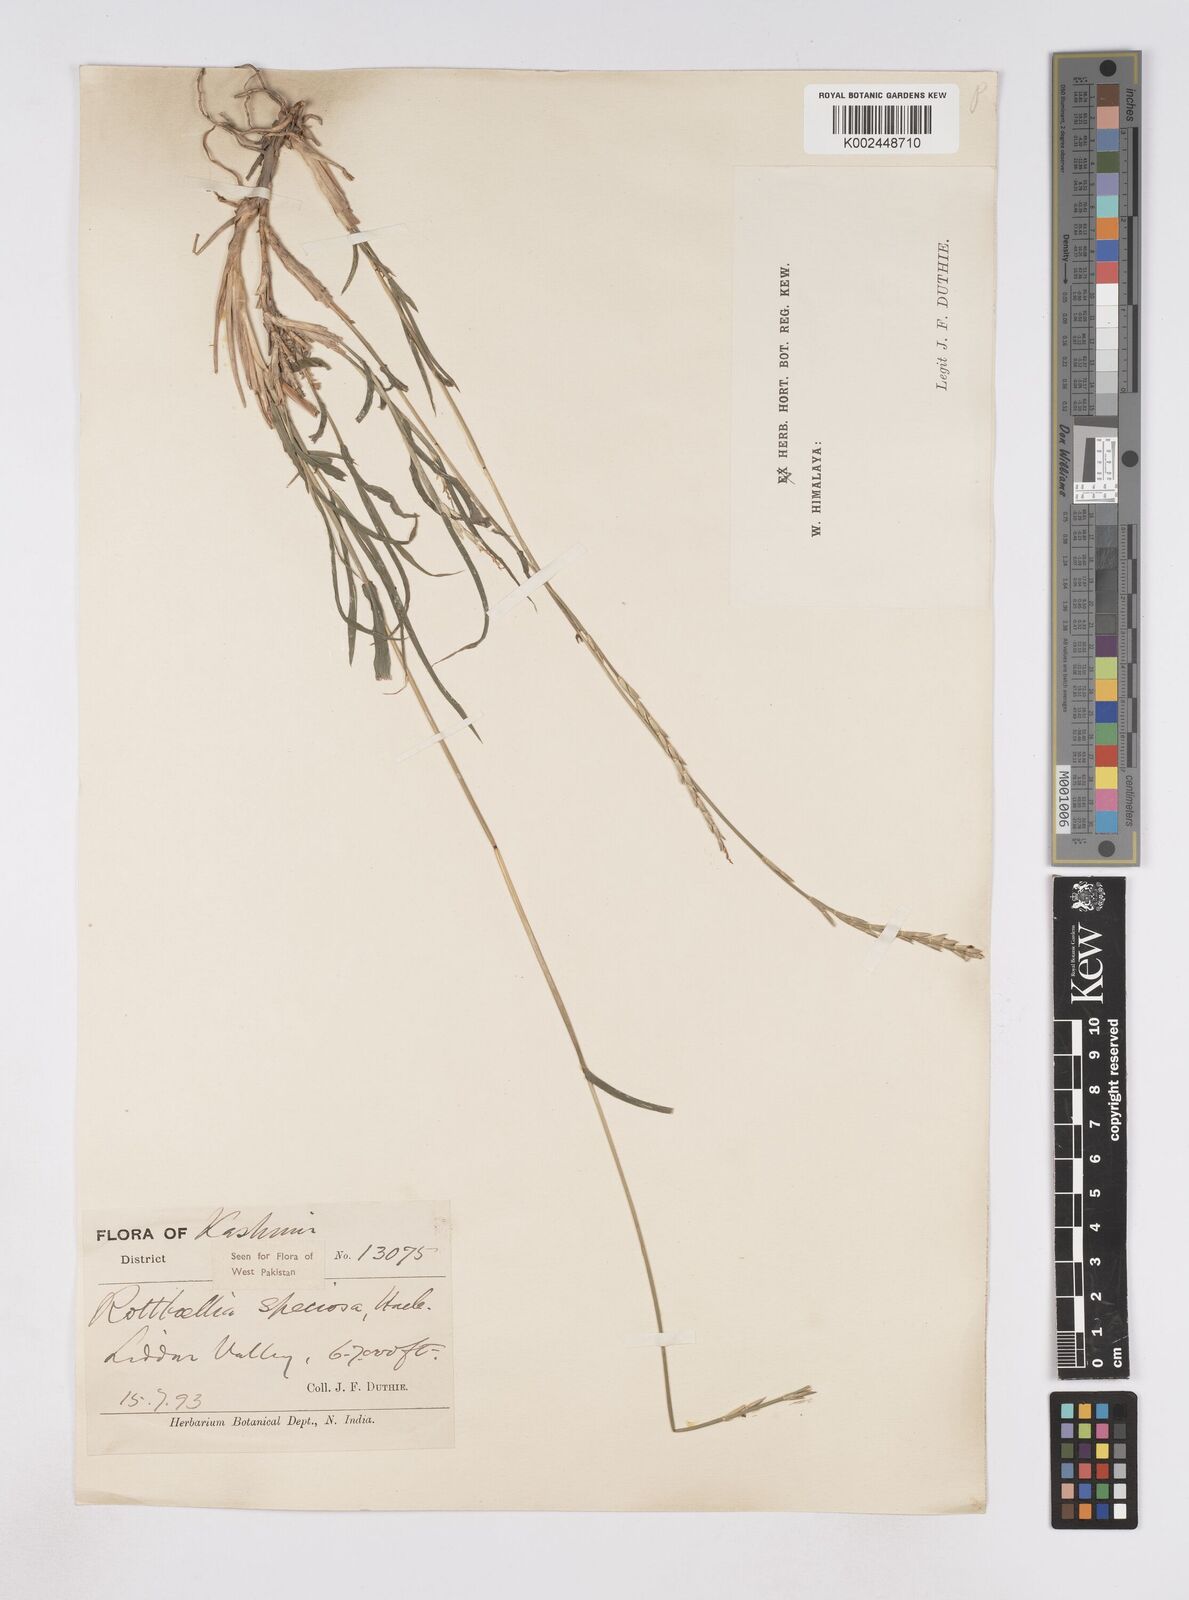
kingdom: Plantae
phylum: Tracheophyta
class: Liliopsida
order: Poales
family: Poaceae
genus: Phacelurus
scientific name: Phacelurus speciosus
